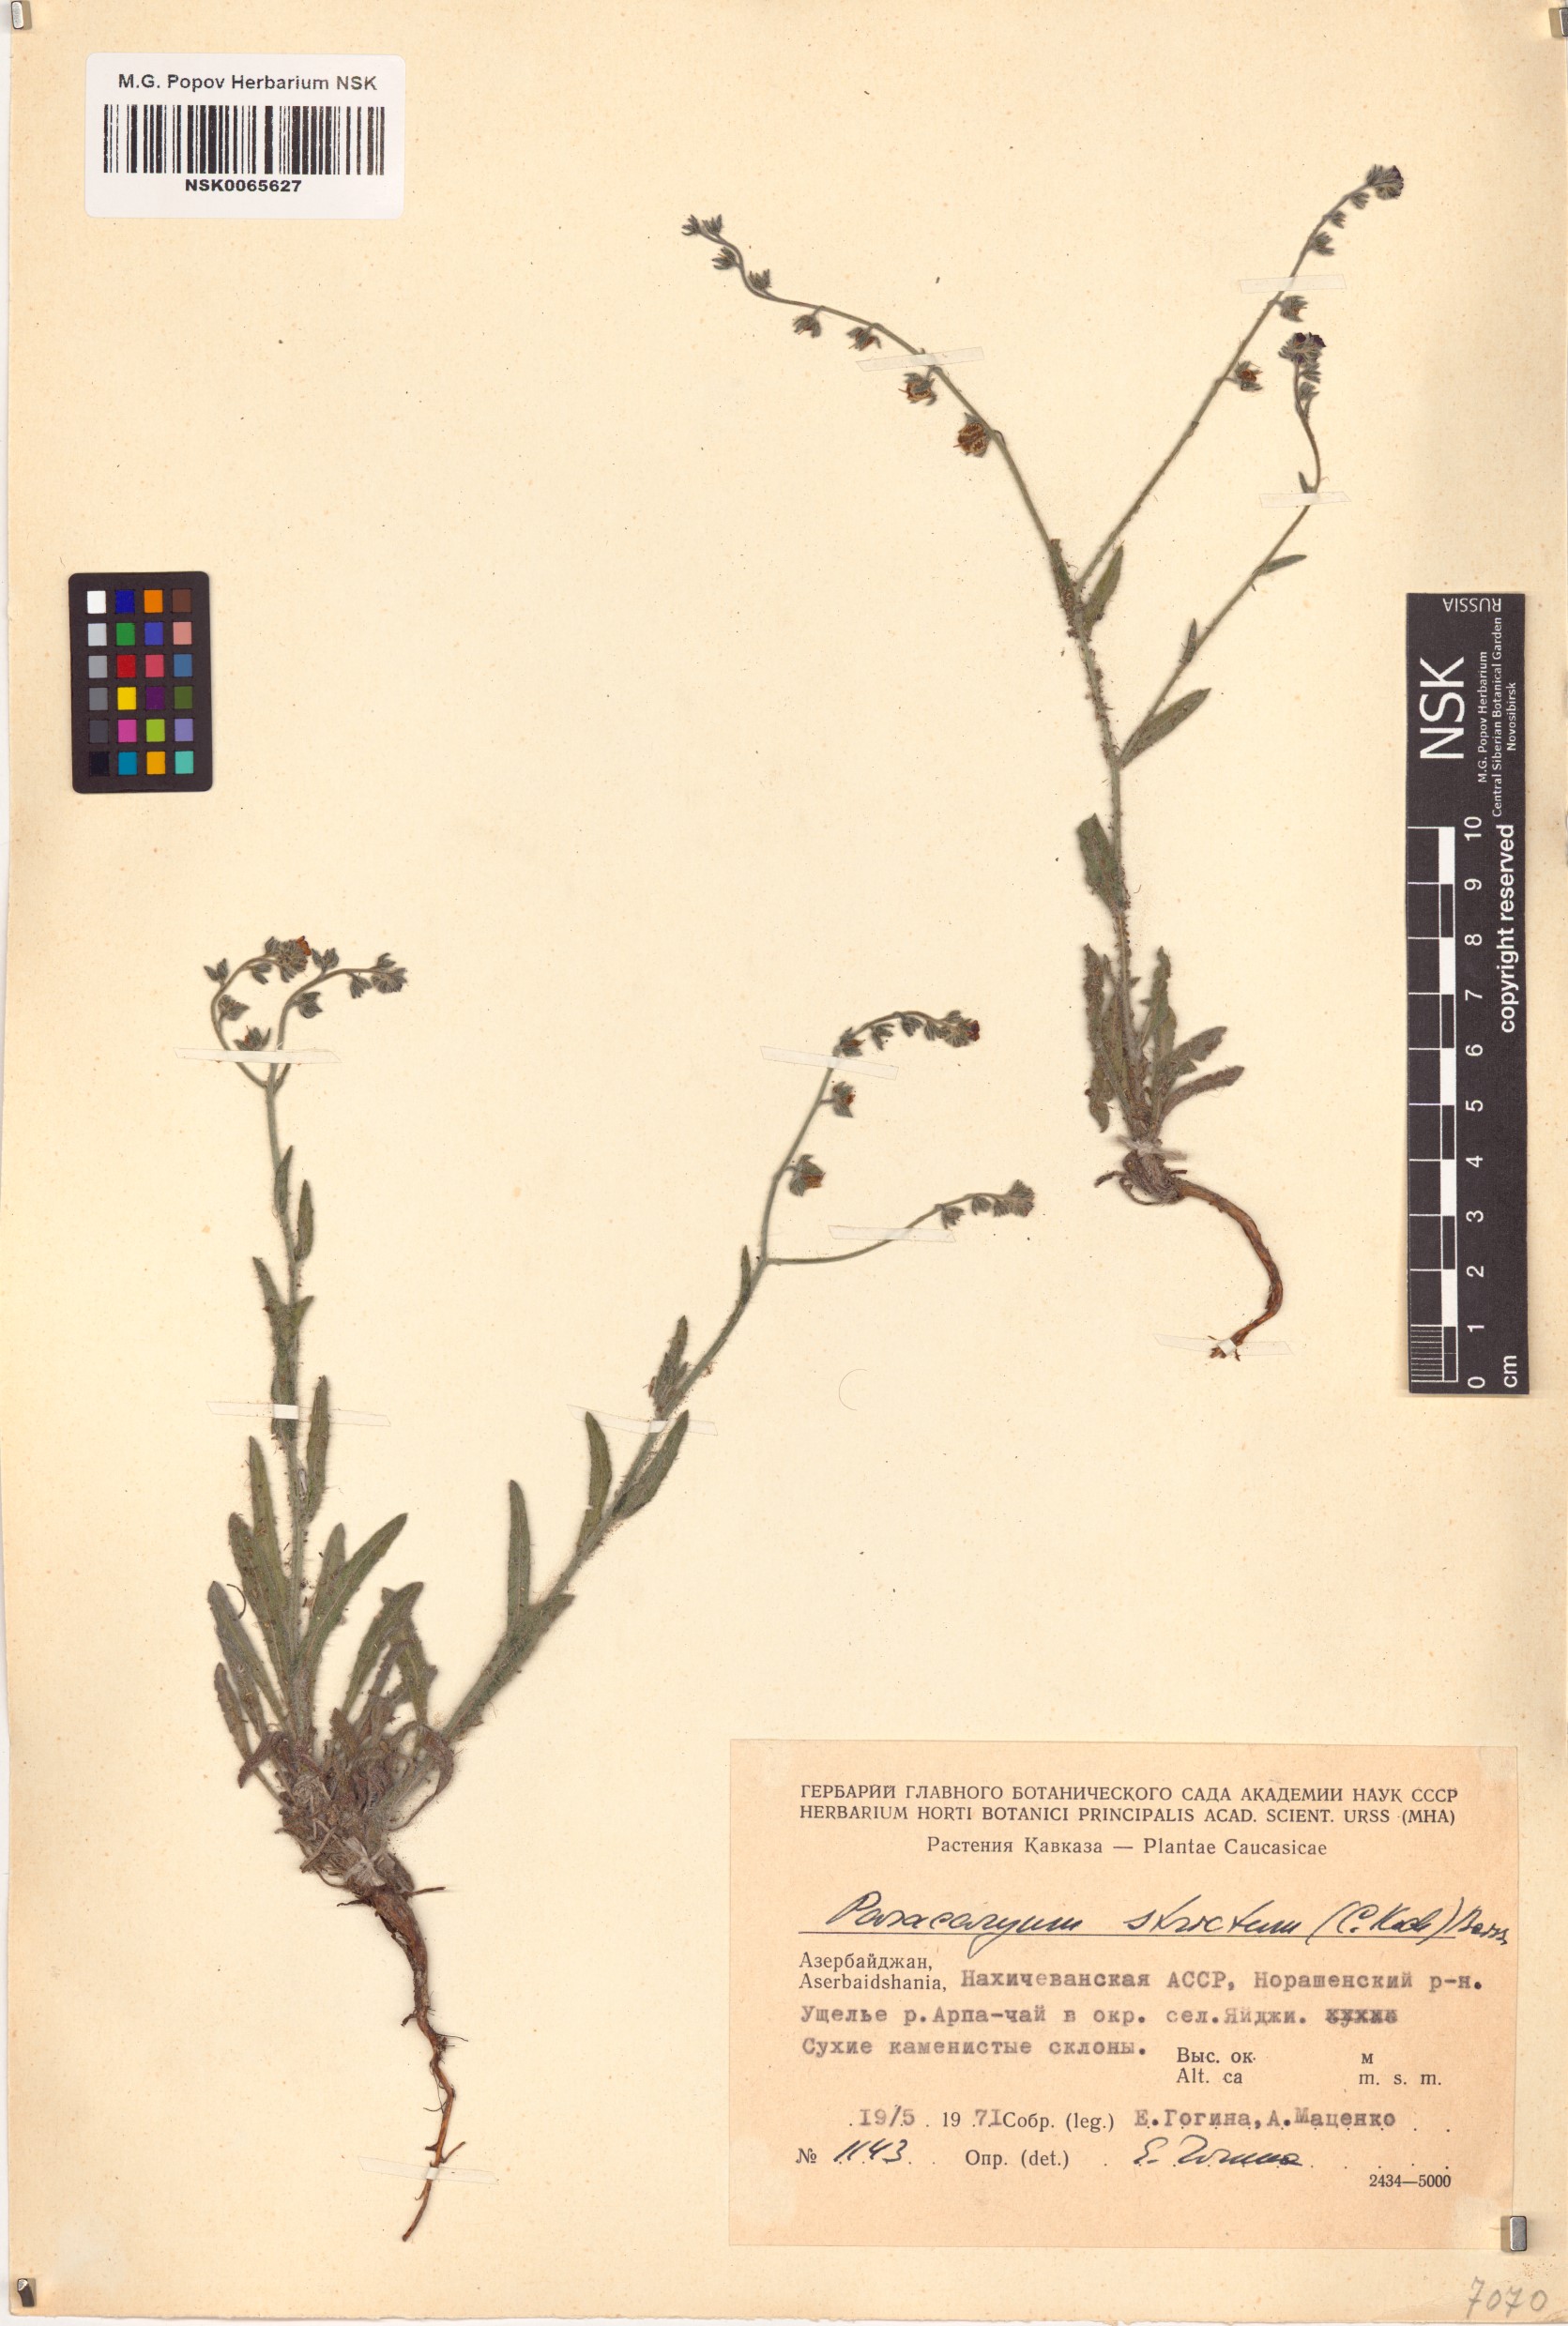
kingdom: Plantae
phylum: Tracheophyta
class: Magnoliopsida
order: Boraginales
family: Boraginaceae
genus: Paracaryum
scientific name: Paracaryum strictum
